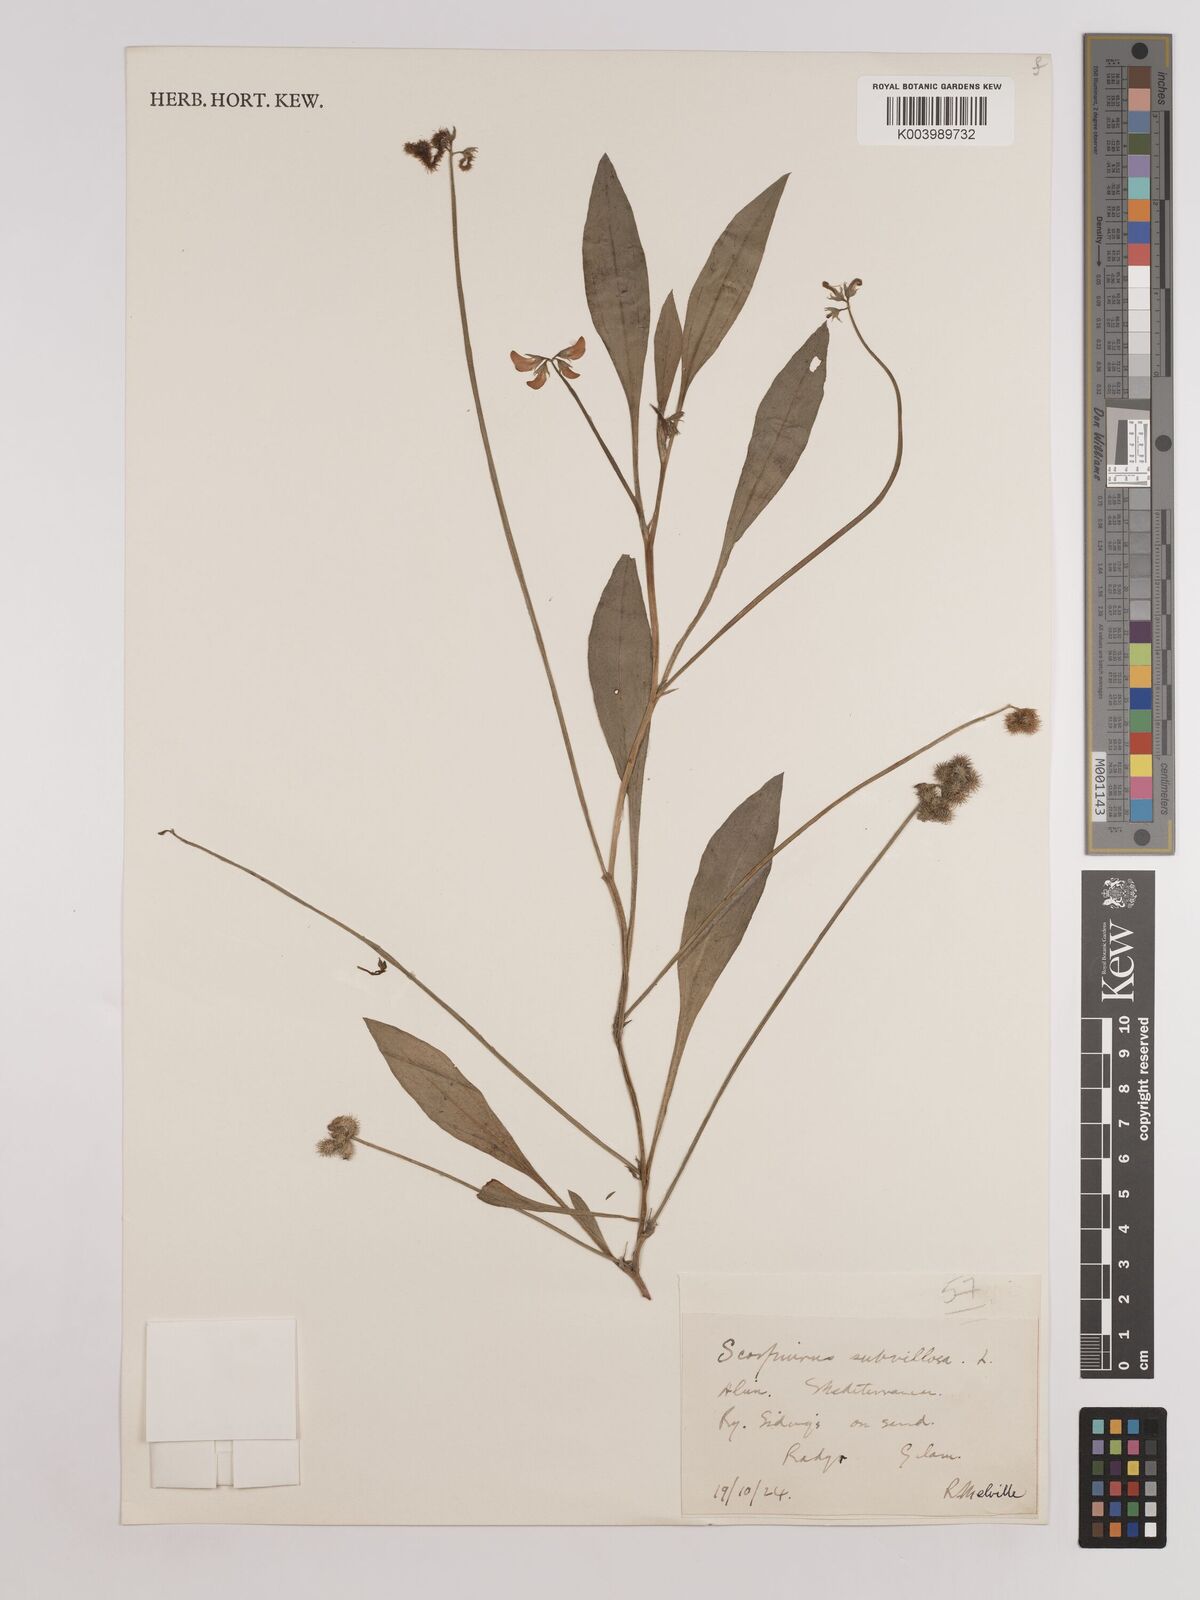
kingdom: Plantae
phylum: Tracheophyta
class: Magnoliopsida
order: Fabales
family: Fabaceae
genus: Scorpiurus
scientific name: Scorpiurus muricatus
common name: Caterpillar-plant
